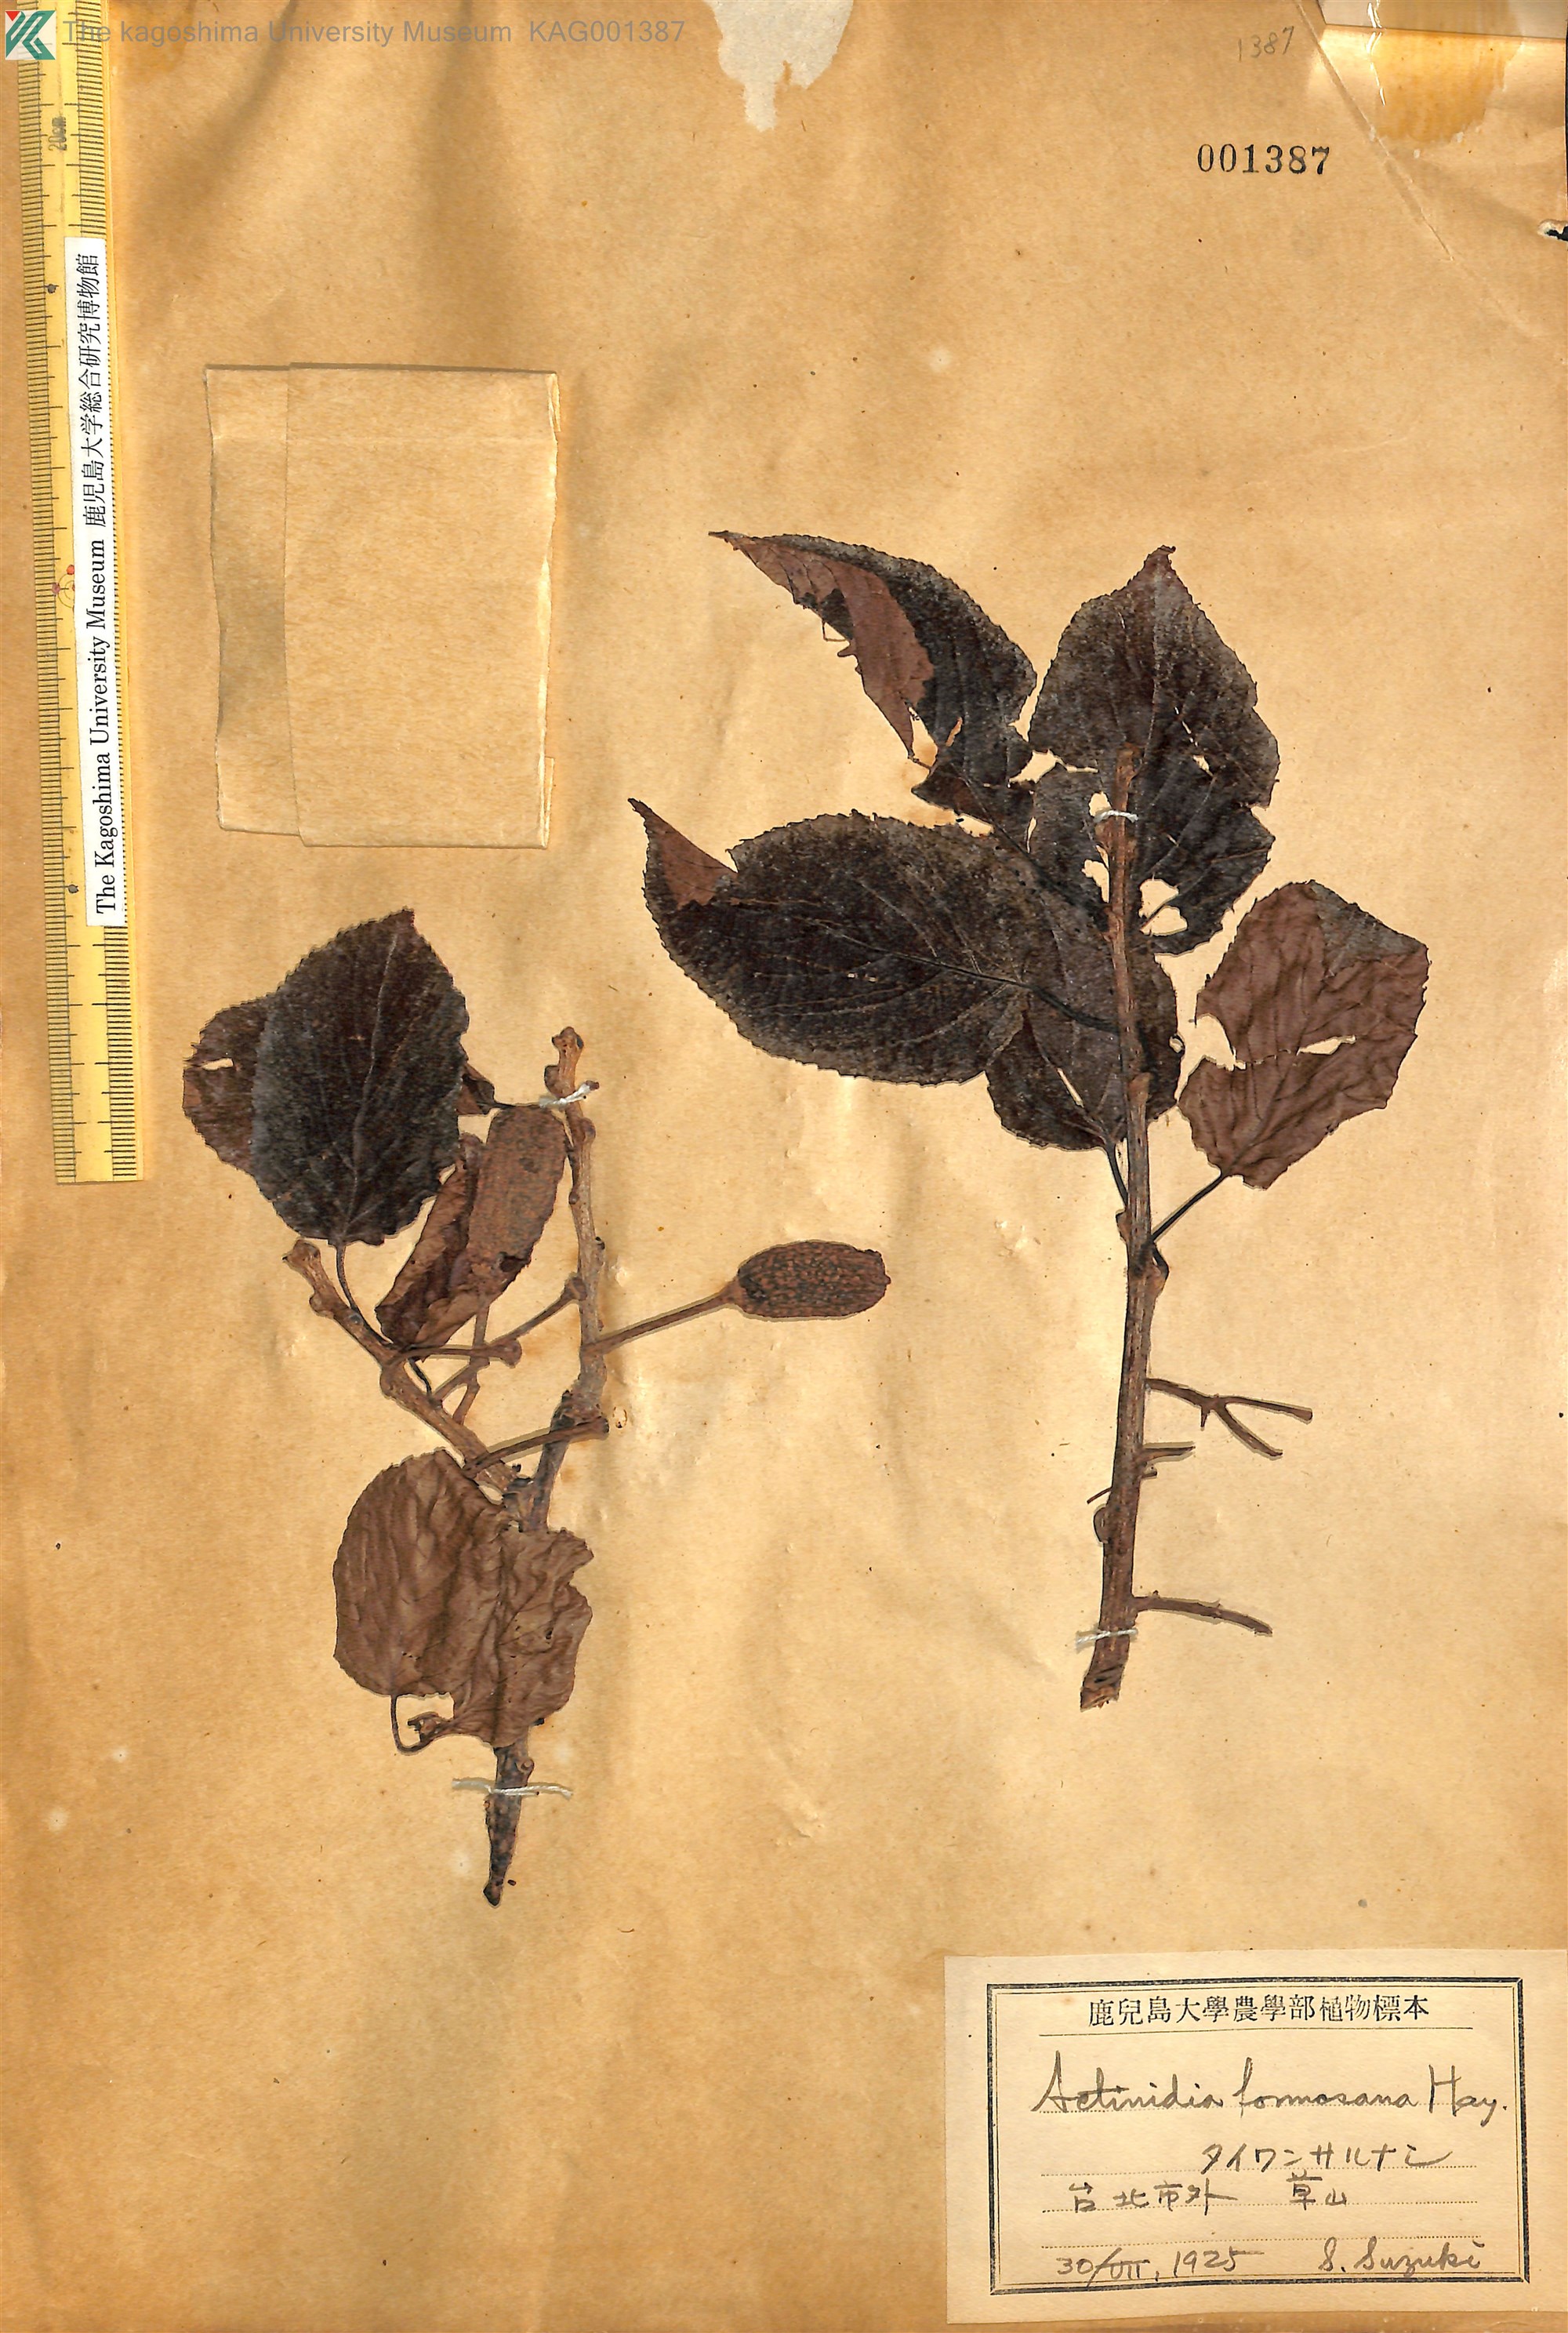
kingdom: Plantae
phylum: Tracheophyta
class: Magnoliopsida
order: Ericales
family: Actinidiaceae
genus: Actinidia
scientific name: Actinidia callosa
